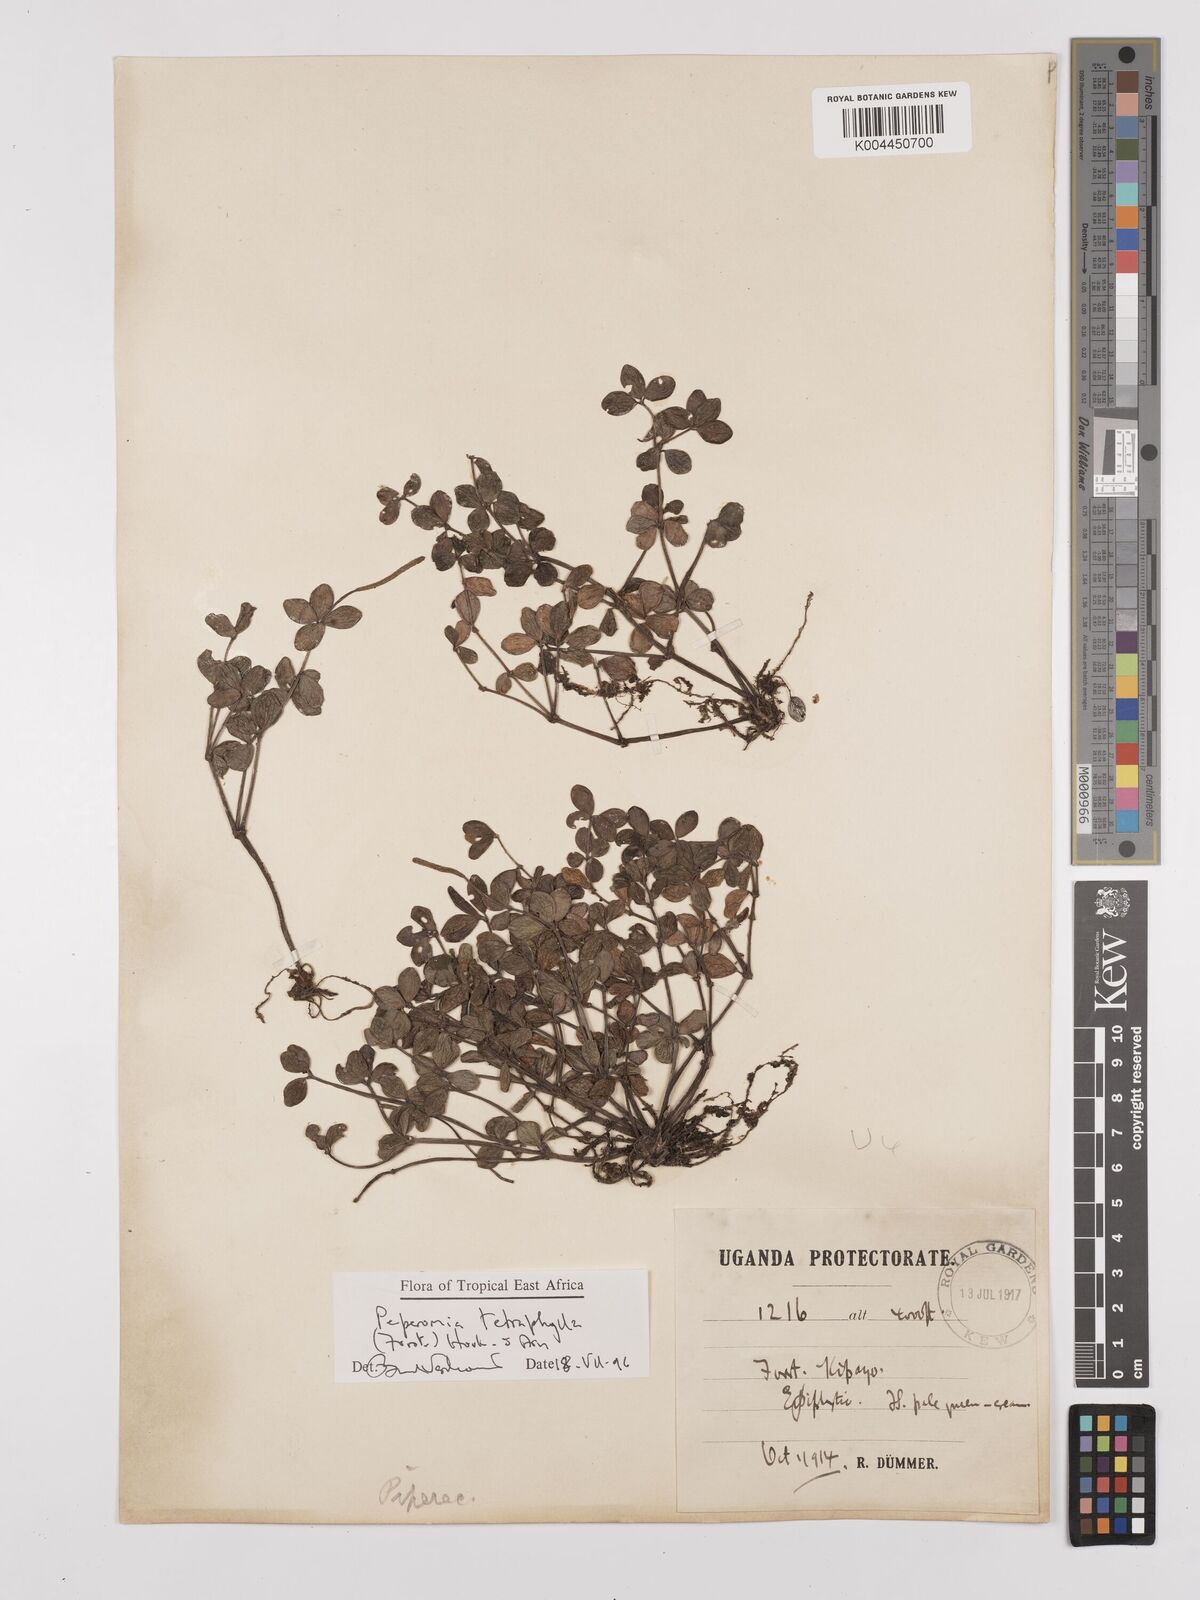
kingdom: Plantae
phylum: Tracheophyta
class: Magnoliopsida
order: Piperales
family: Piperaceae
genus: Peperomia
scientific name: Peperomia tetraphylla
